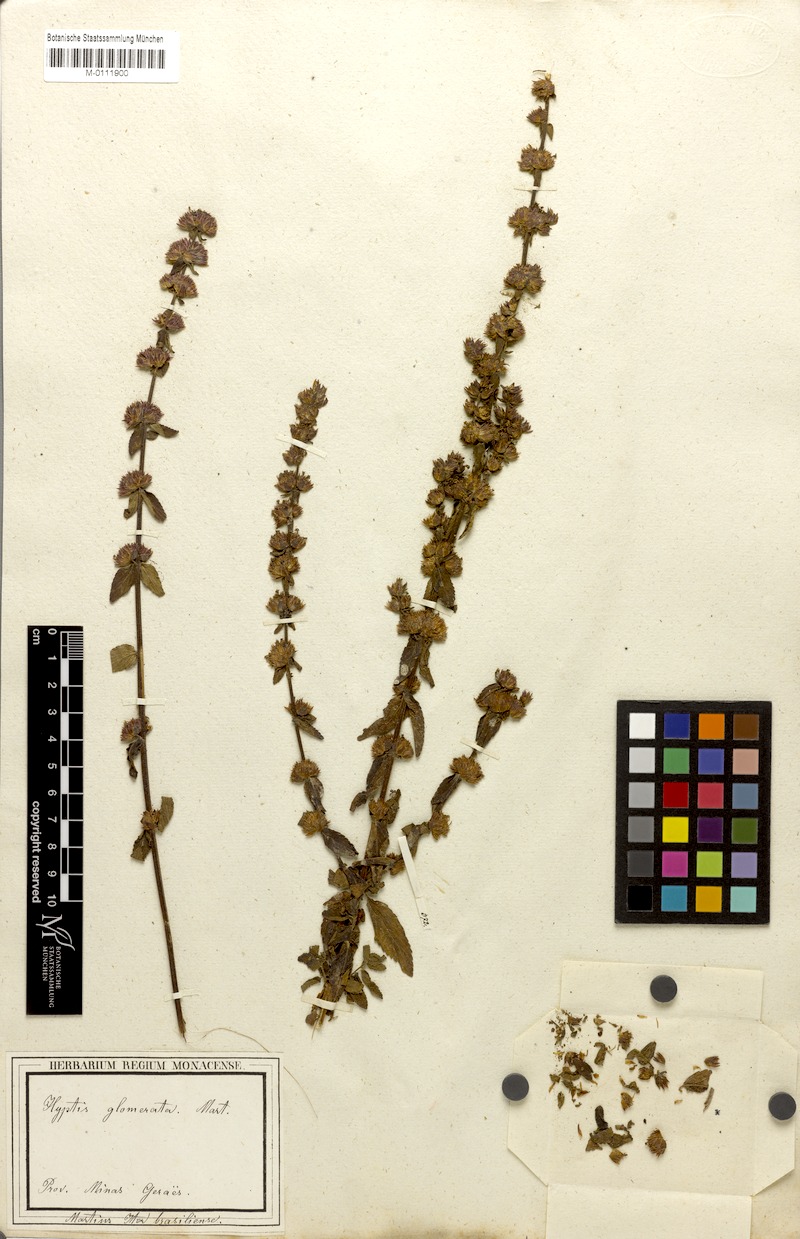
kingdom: Plantae
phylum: Tracheophyta
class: Magnoliopsida
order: Lamiales
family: Lamiaceae
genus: Oocephalus
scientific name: Oocephalus oppositiflorus
